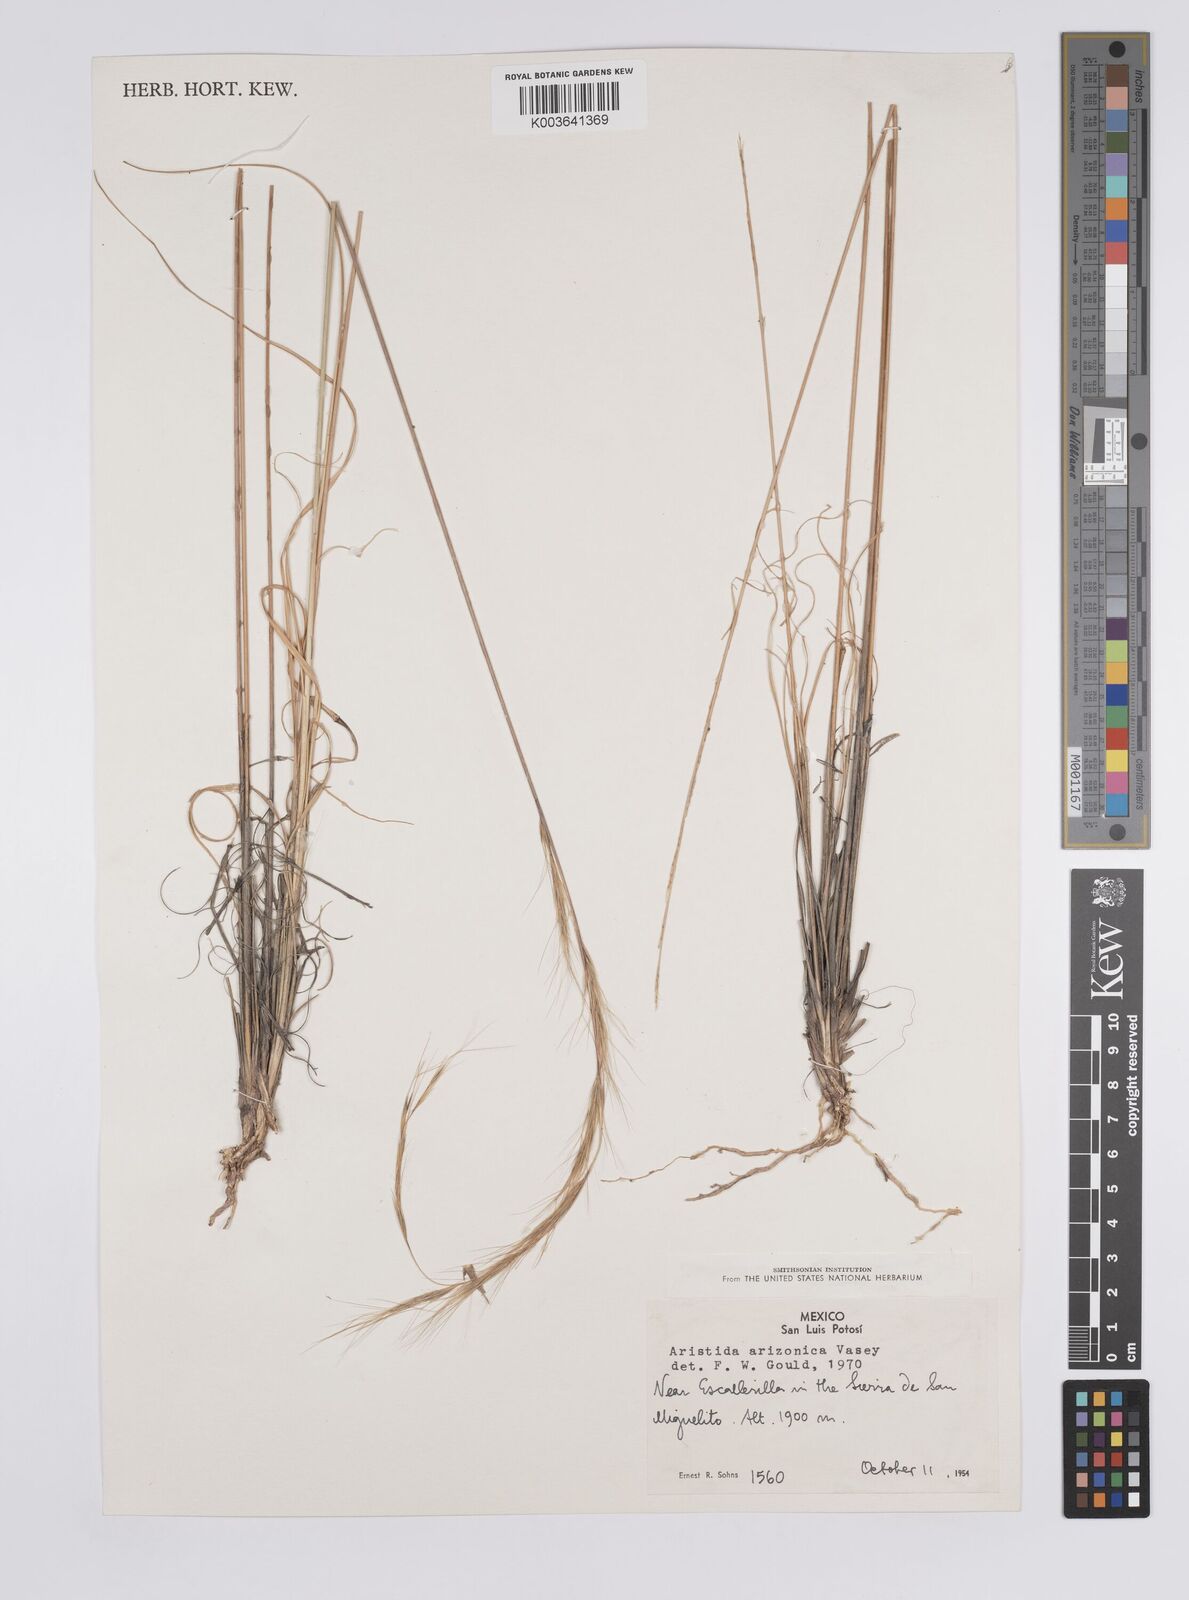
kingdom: Plantae
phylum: Tracheophyta
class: Liliopsida
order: Poales
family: Poaceae
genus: Aristida
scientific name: Aristida arizonica
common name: Arizona threeawn
